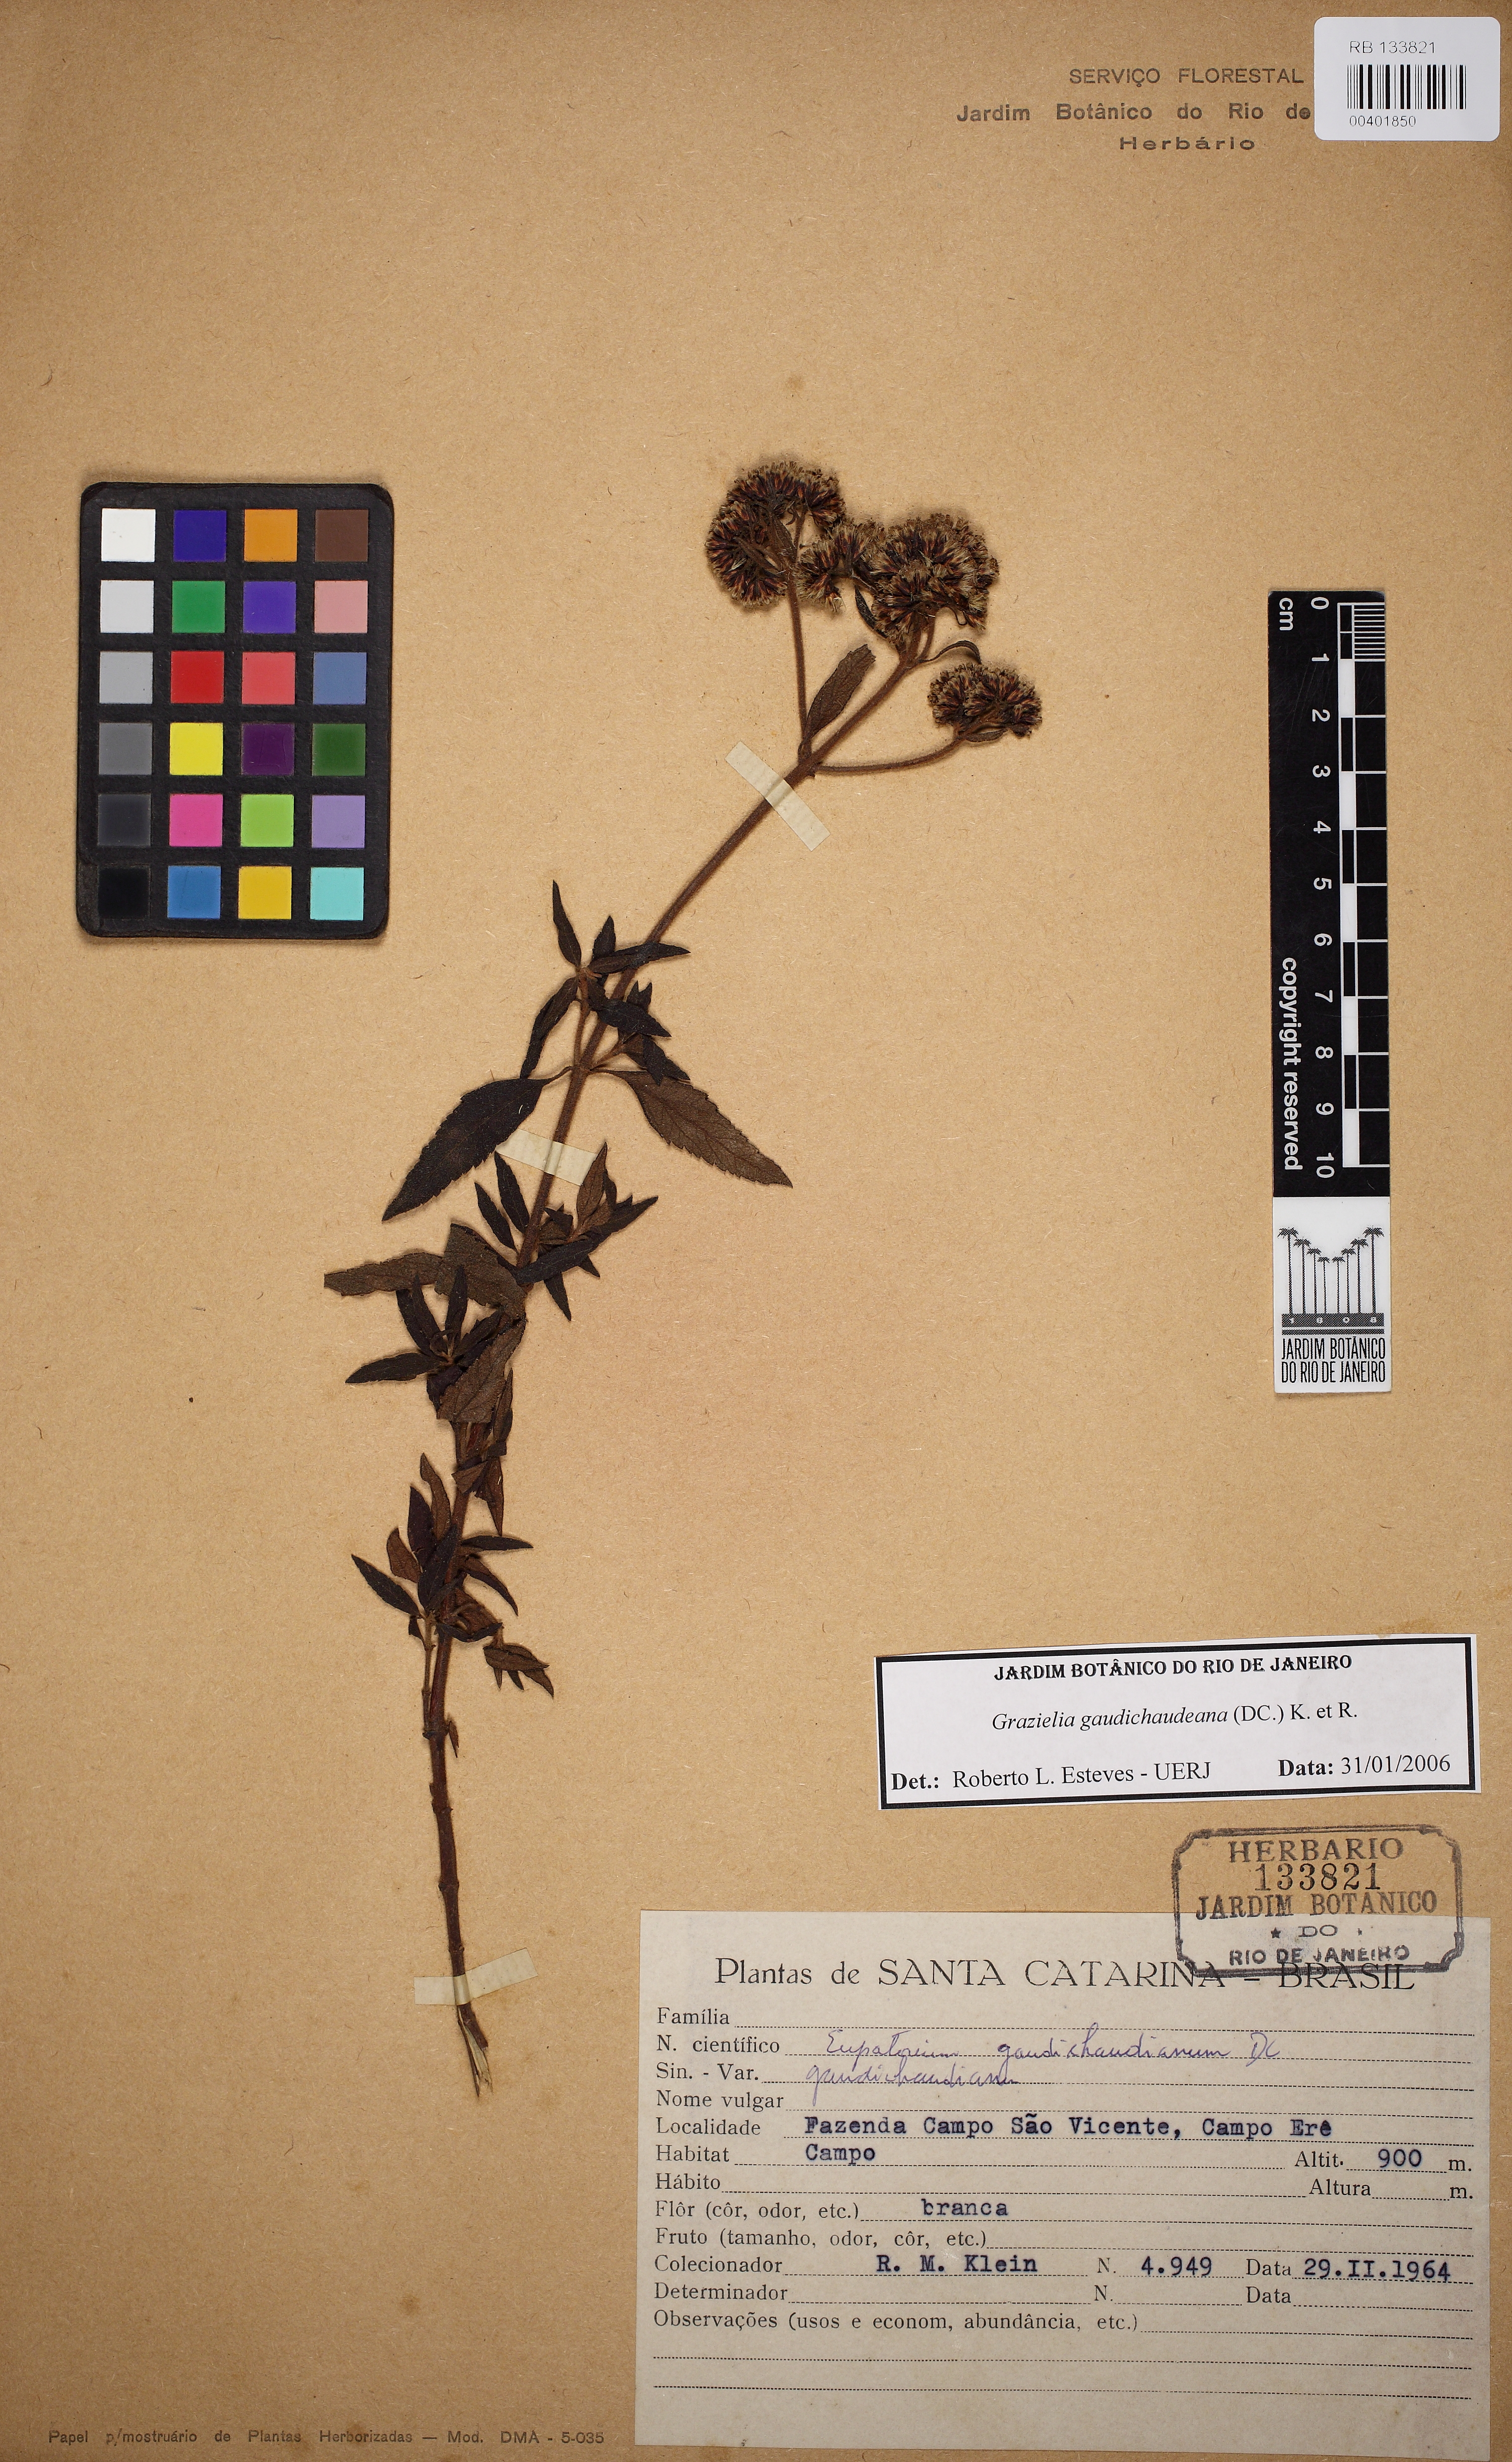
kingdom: Plantae
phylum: Tracheophyta
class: Magnoliopsida
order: Asterales
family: Asteraceae
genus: Grazielia
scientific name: Grazielia gaudichaudiana
